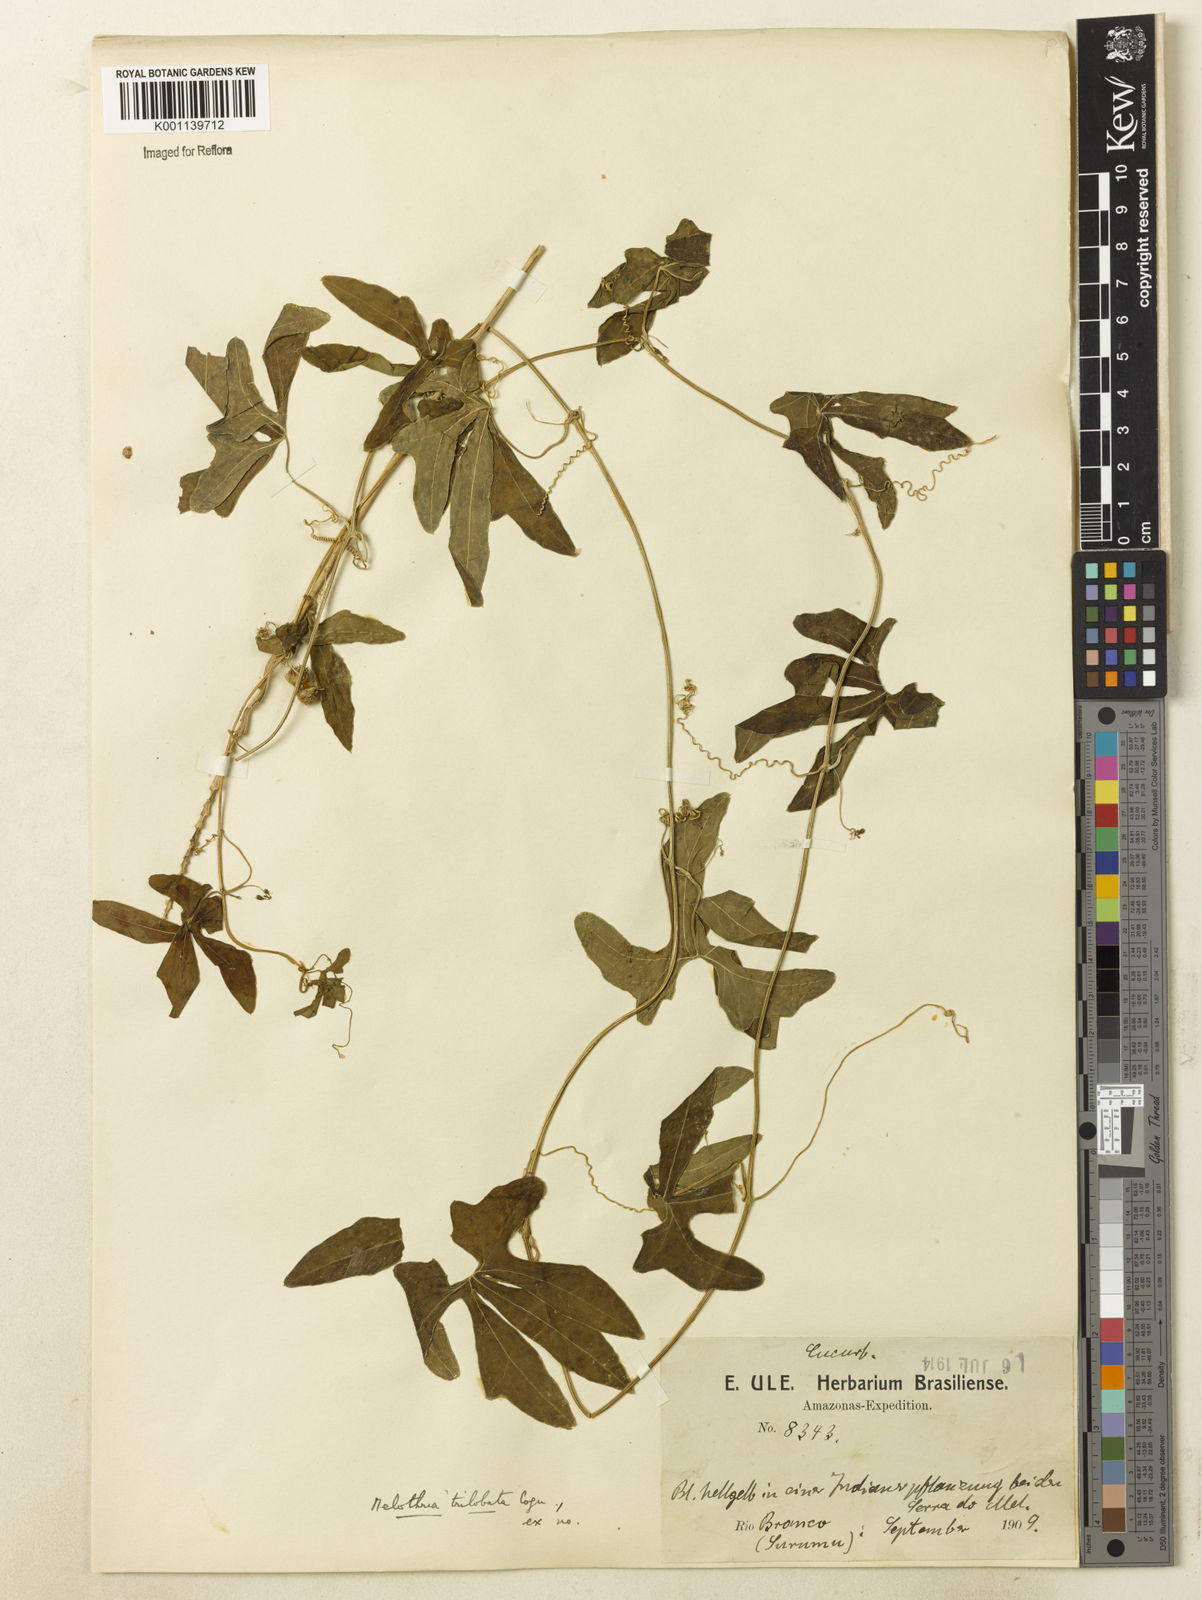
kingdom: Plantae
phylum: Tracheophyta
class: Magnoliopsida
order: Cucurbitales
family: Cucurbitaceae
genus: Melothria
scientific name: Melothria trilobata
